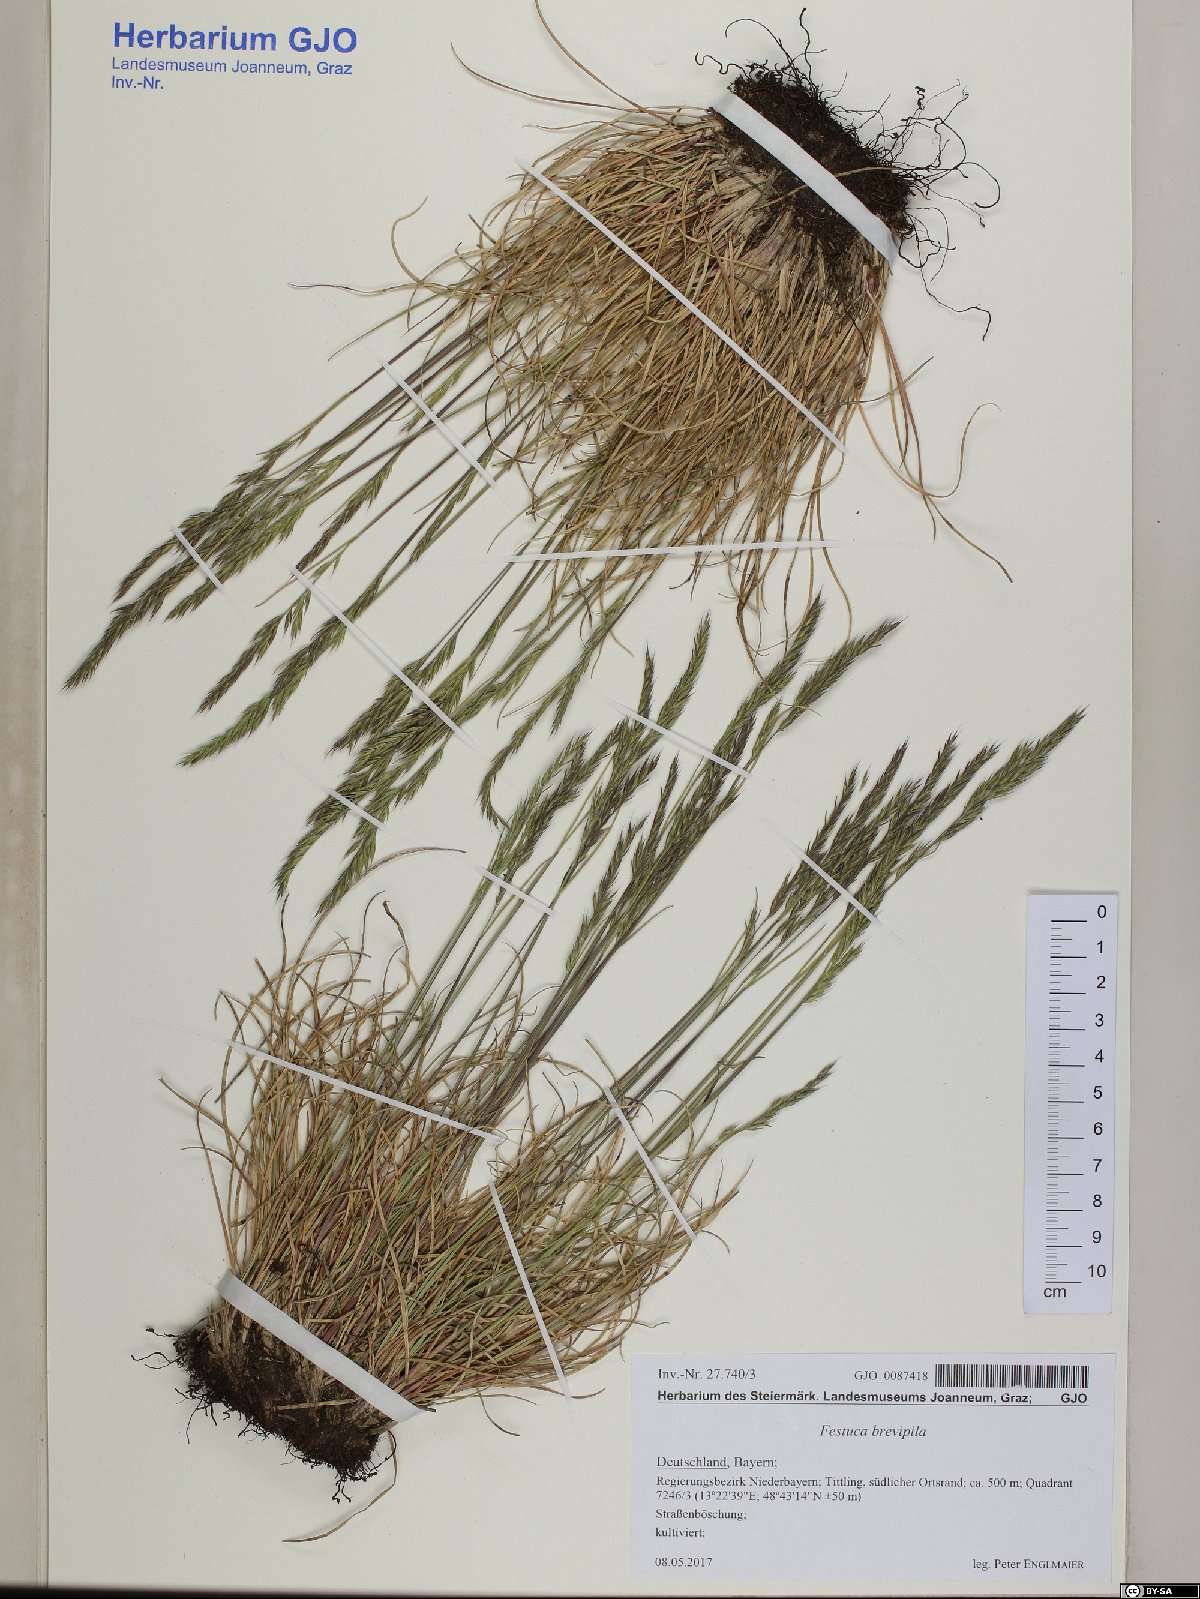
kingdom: Plantae
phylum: Tracheophyta
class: Liliopsida
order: Poales
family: Poaceae
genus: Festuca
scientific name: Festuca trachyphylla
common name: Hard fescue
